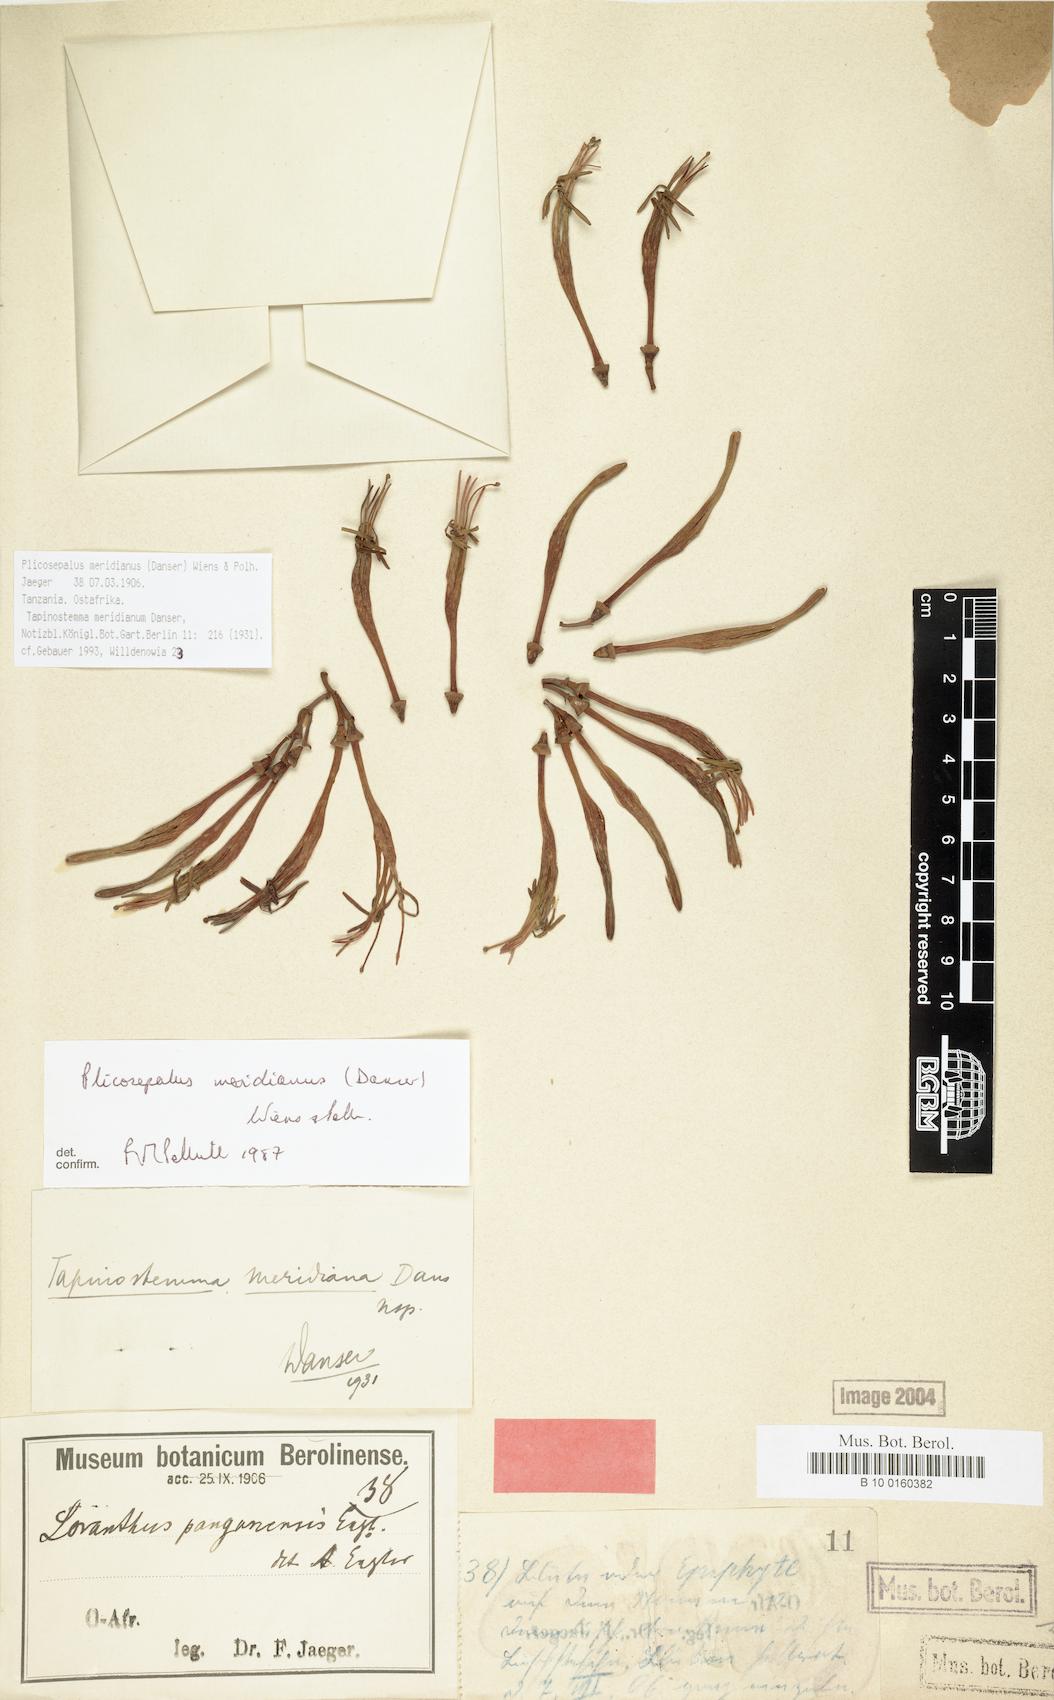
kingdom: Plantae
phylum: Tracheophyta
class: Magnoliopsida
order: Santalales
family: Loranthaceae
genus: Plicosepalus
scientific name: Plicosepalus meridianus
